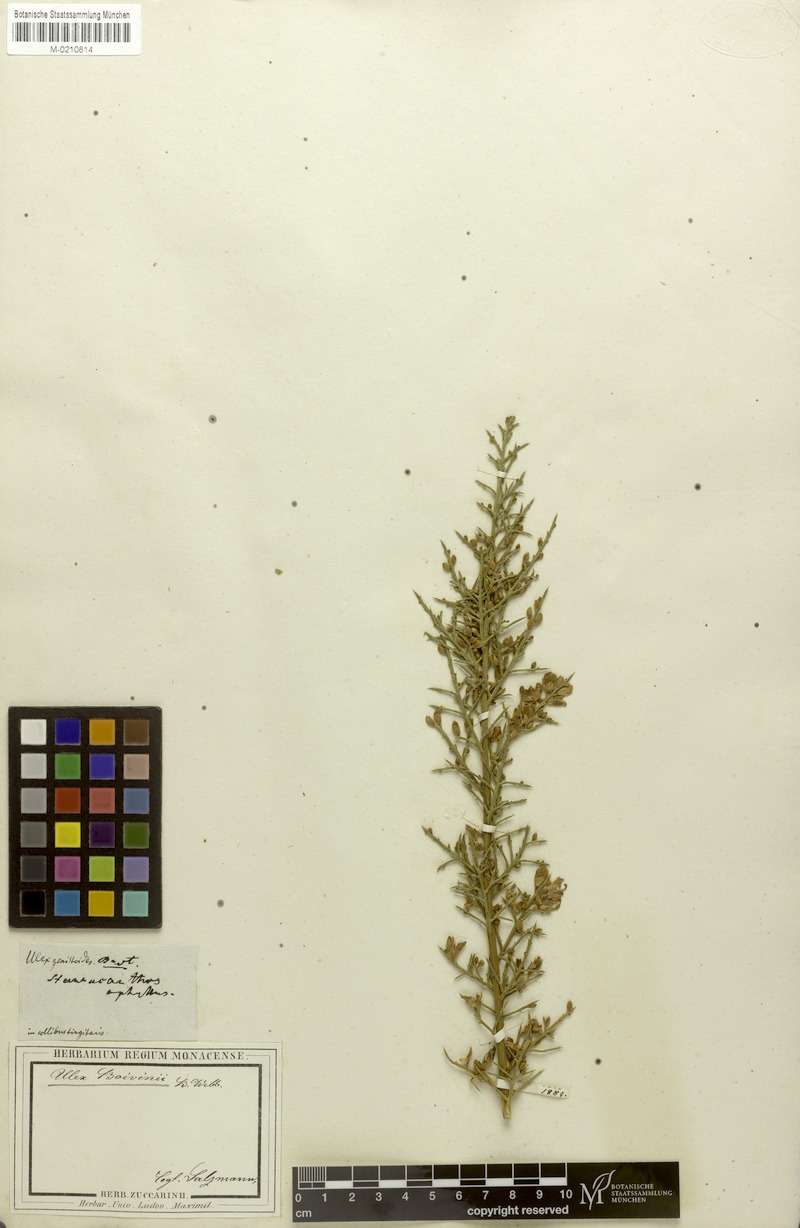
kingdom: Plantae
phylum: Tracheophyta
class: Magnoliopsida
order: Fabales
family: Fabaceae
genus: Stauracanthus
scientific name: Stauracanthus boivinii
